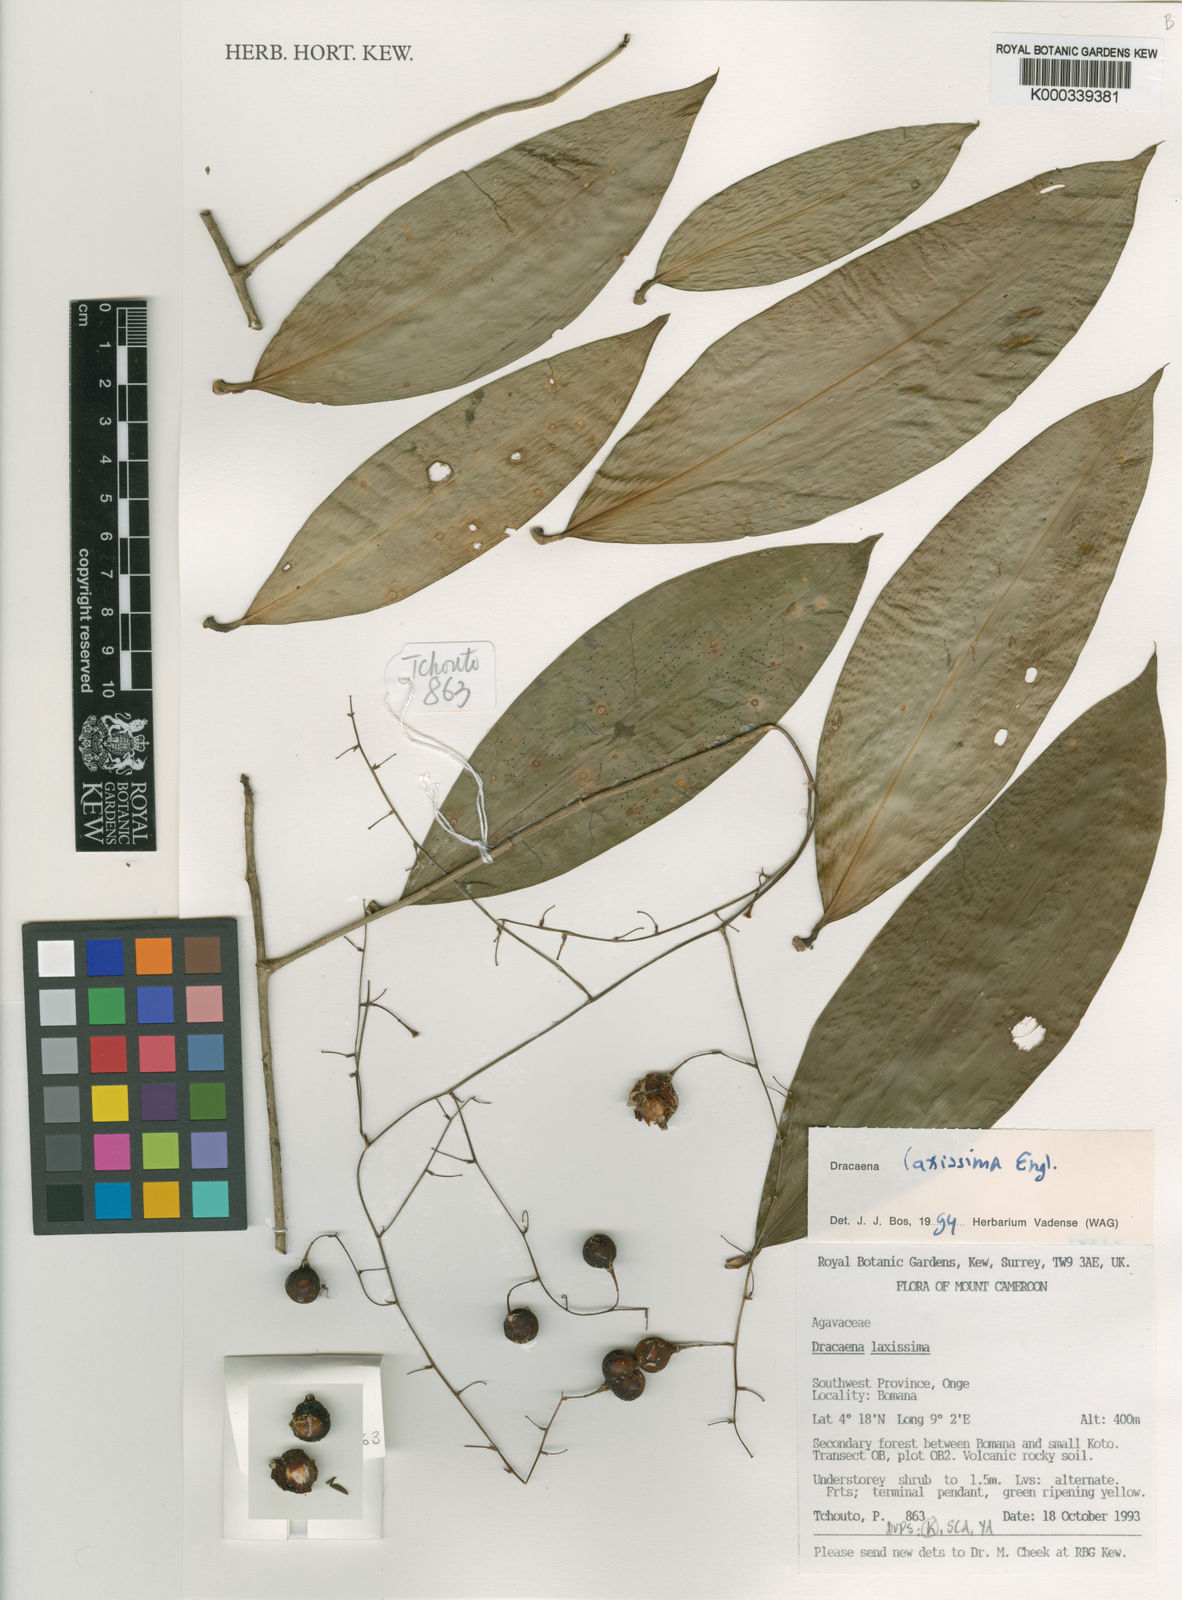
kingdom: Plantae
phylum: Tracheophyta
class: Liliopsida
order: Asparagales
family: Asparagaceae
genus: Dracaena
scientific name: Dracaena laxissima
